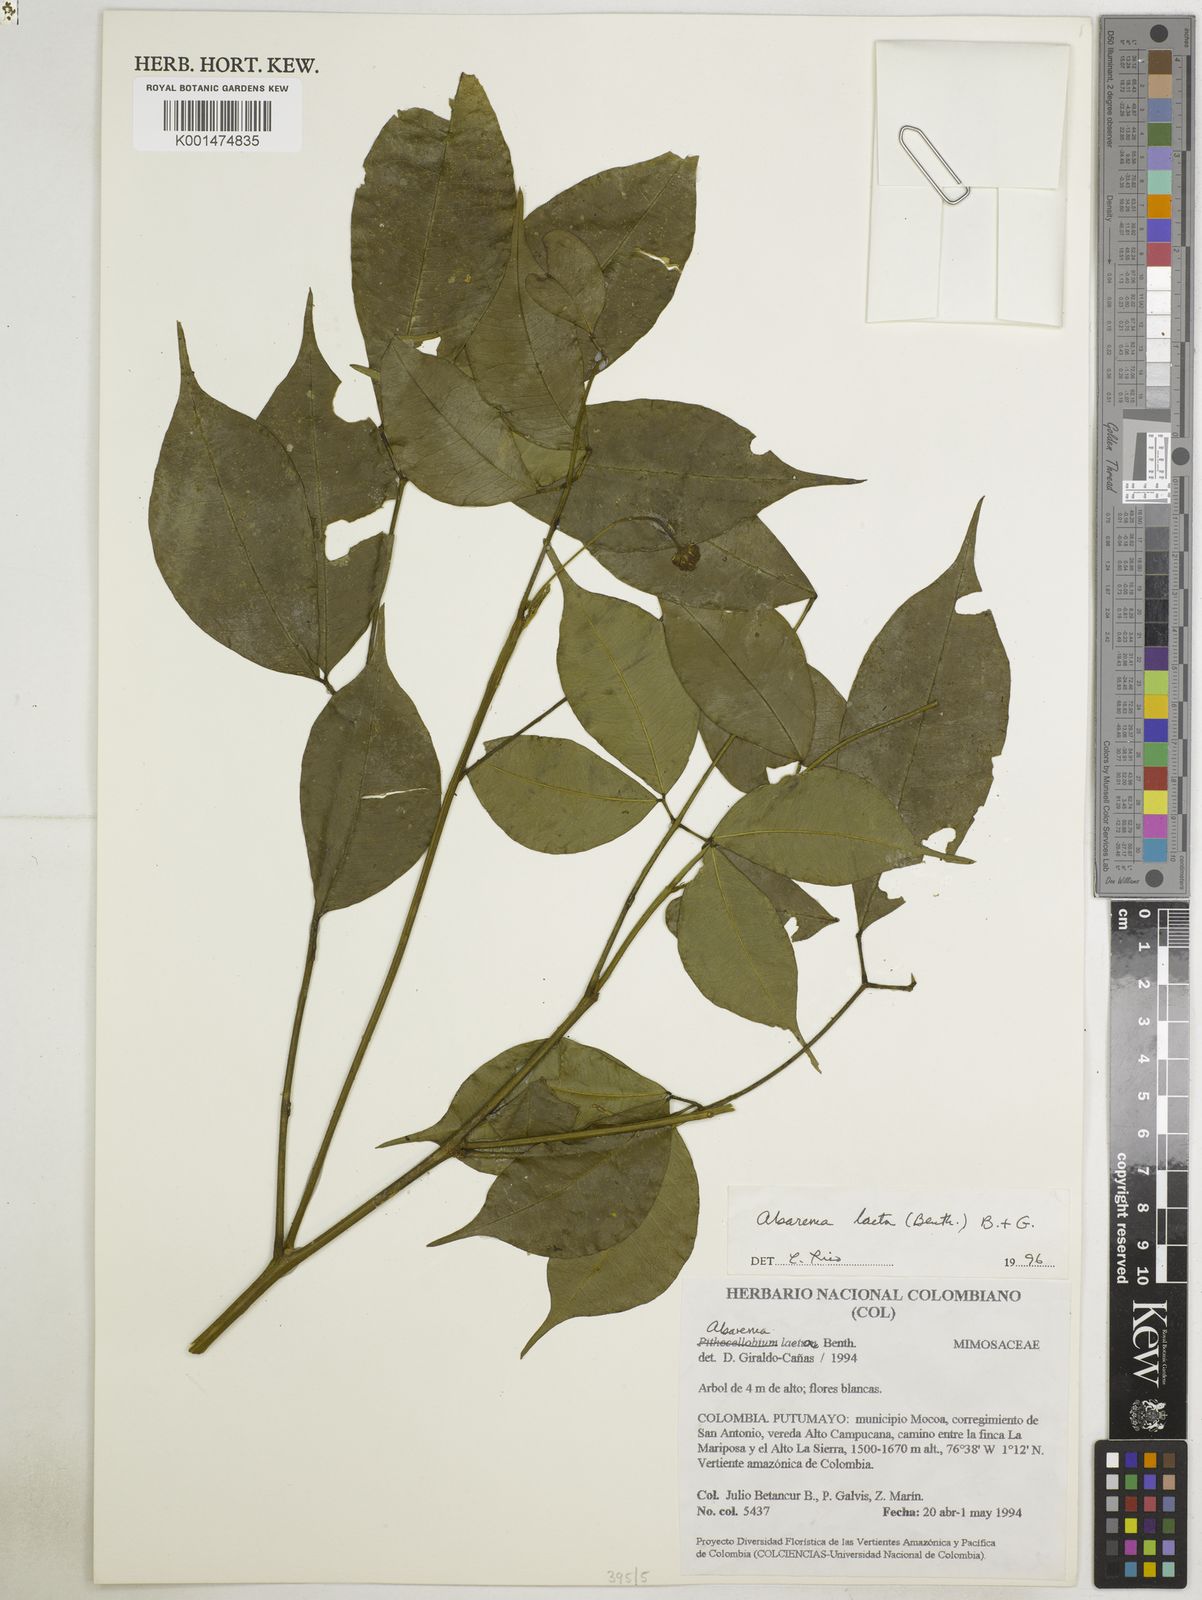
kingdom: Plantae
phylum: Tracheophyta
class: Magnoliopsida
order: Fabales
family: Fabaceae
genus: Jupunba
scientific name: Jupunba laeta
